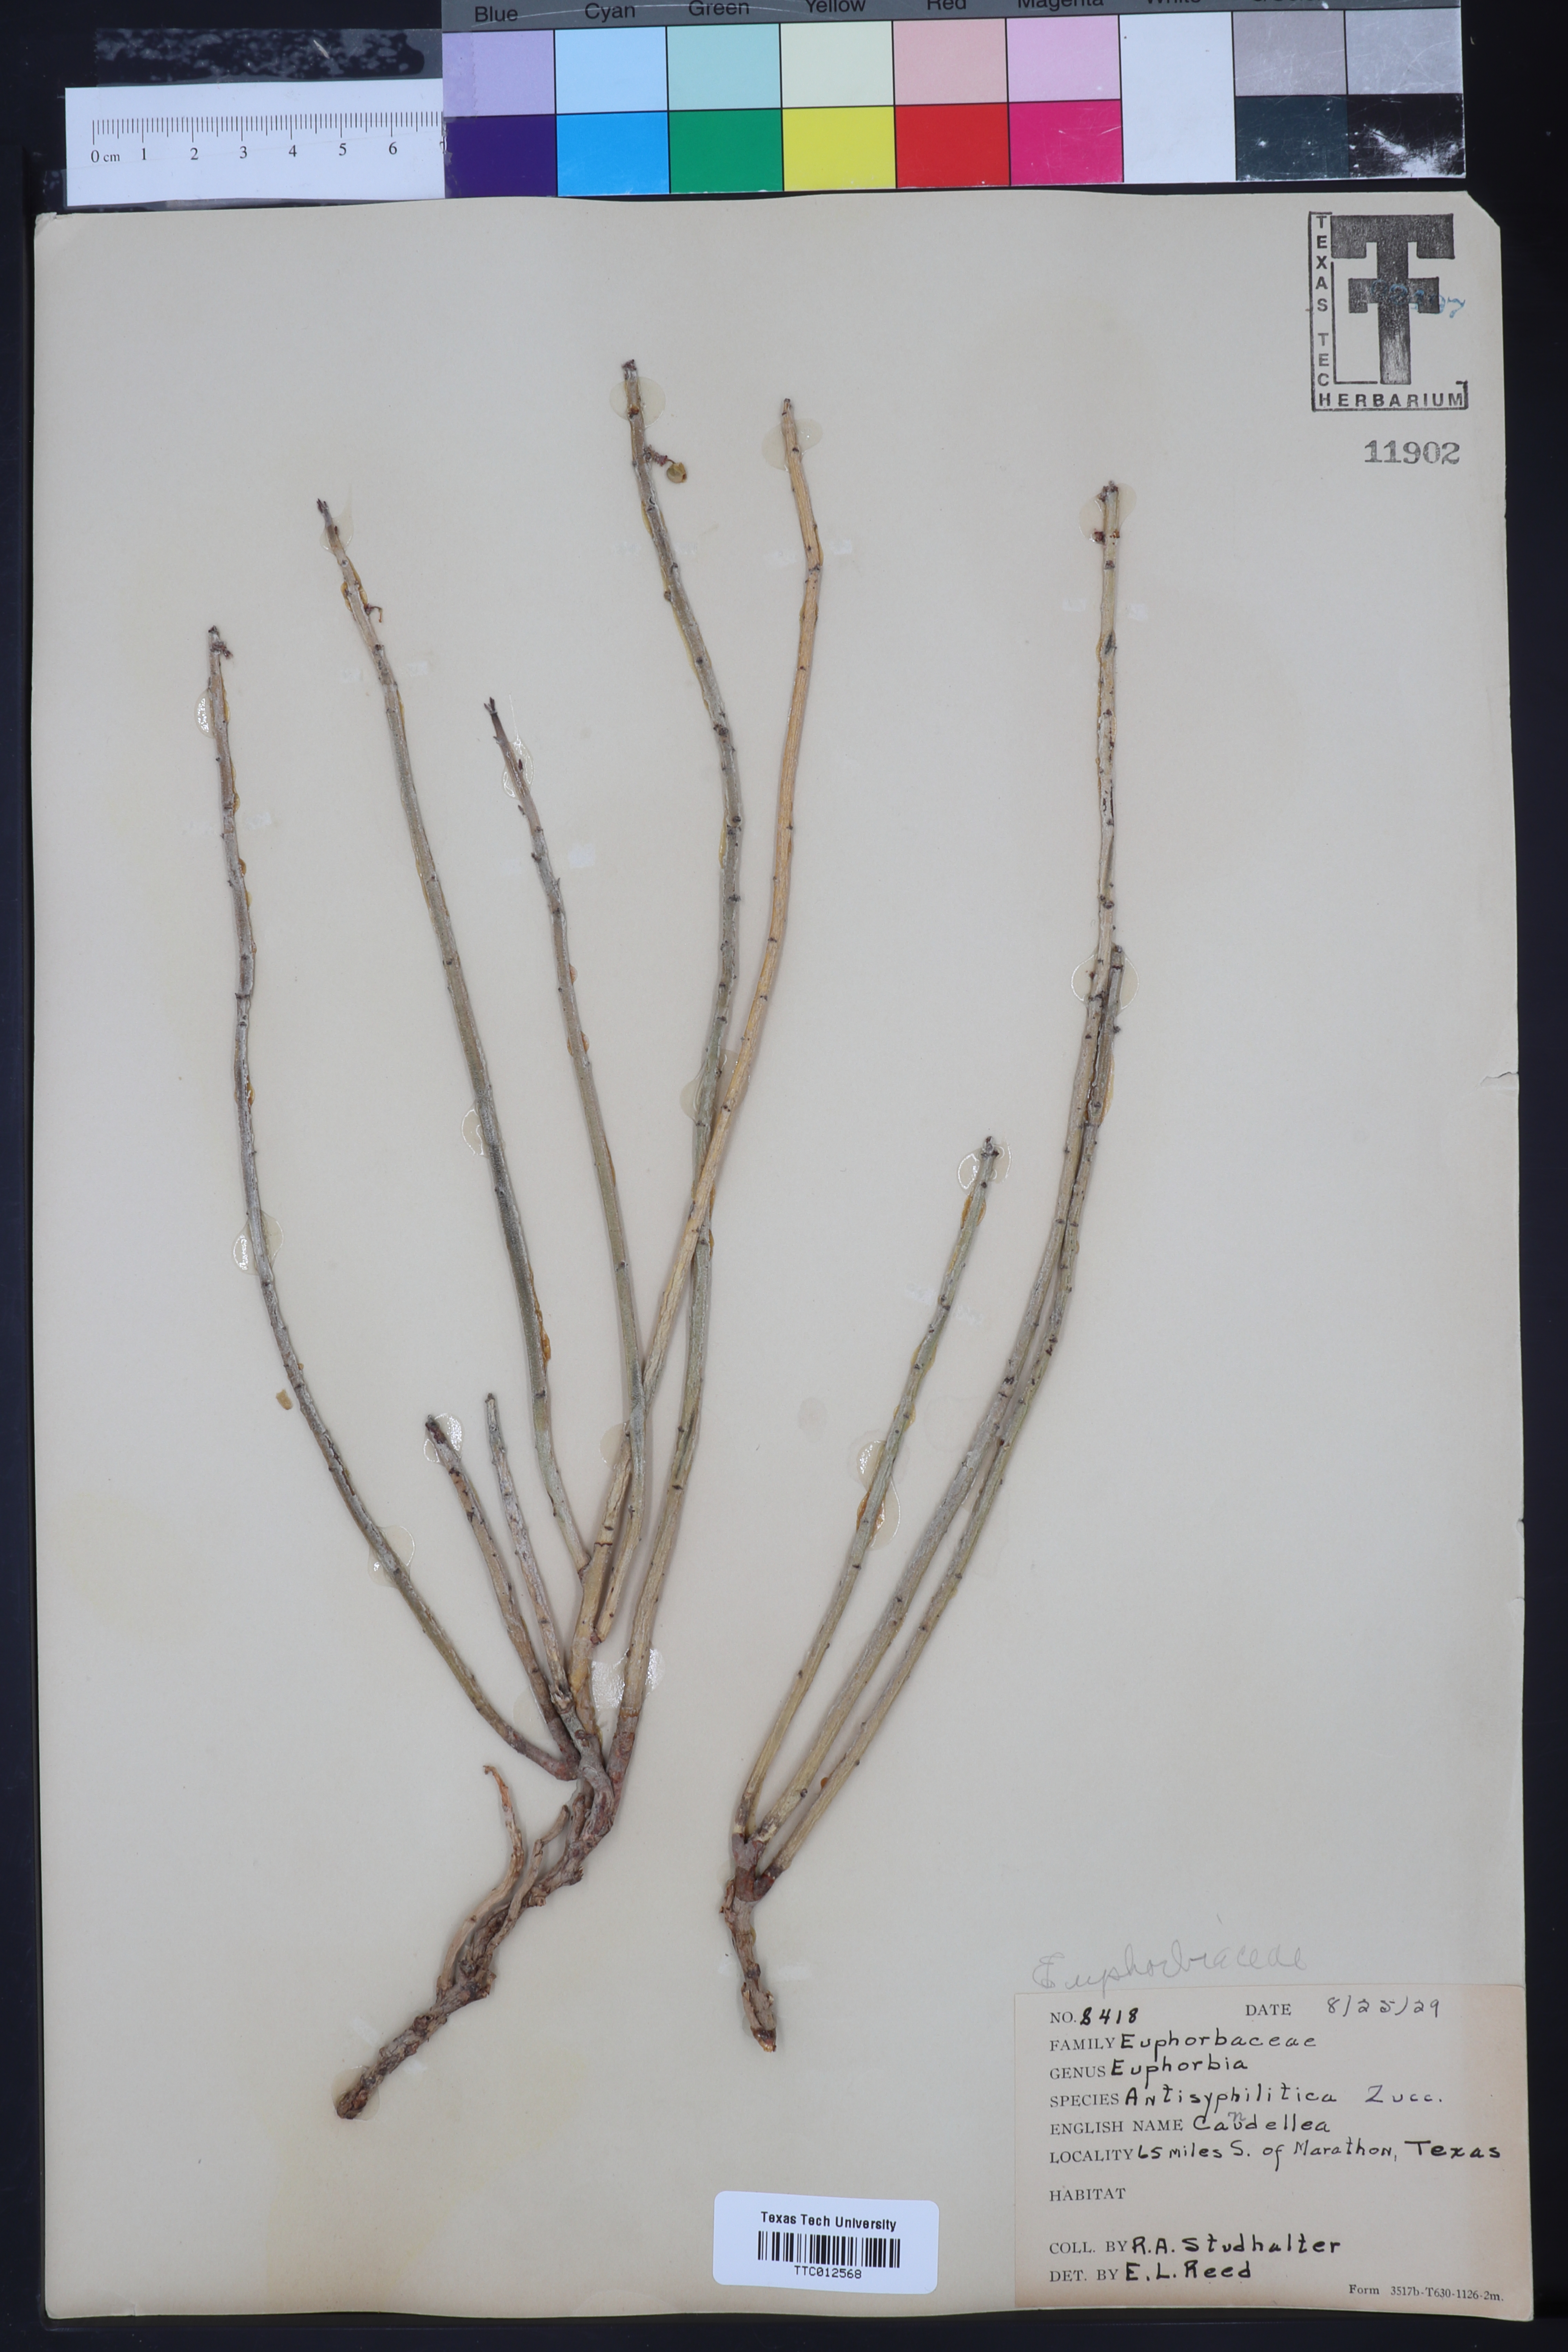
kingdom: Plantae
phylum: Tracheophyta
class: Magnoliopsida
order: Malpighiales
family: Euphorbiaceae
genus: Euphorbia
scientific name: Euphorbia antisyphilitica
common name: Candelilla
